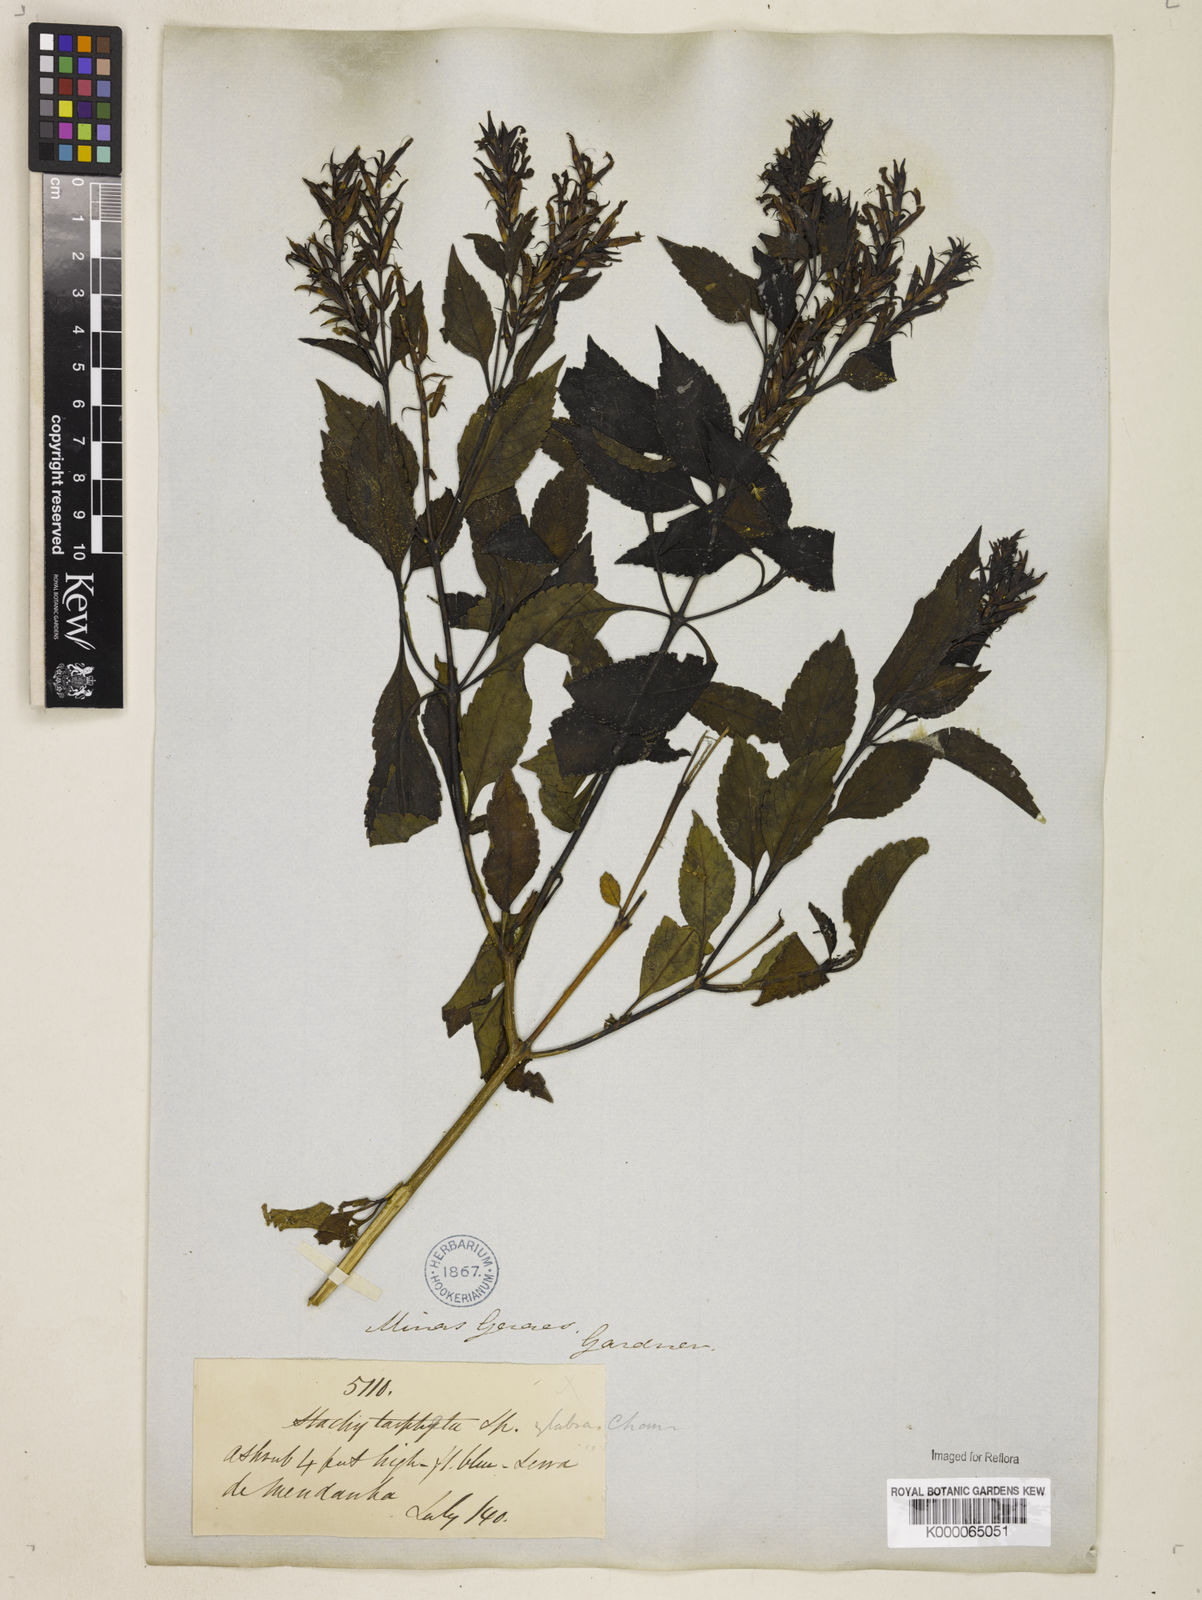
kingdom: Plantae
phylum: Tracheophyta
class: Magnoliopsida
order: Lamiales
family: Verbenaceae
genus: Stachytarpheta
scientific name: Stachytarpheta glabra
